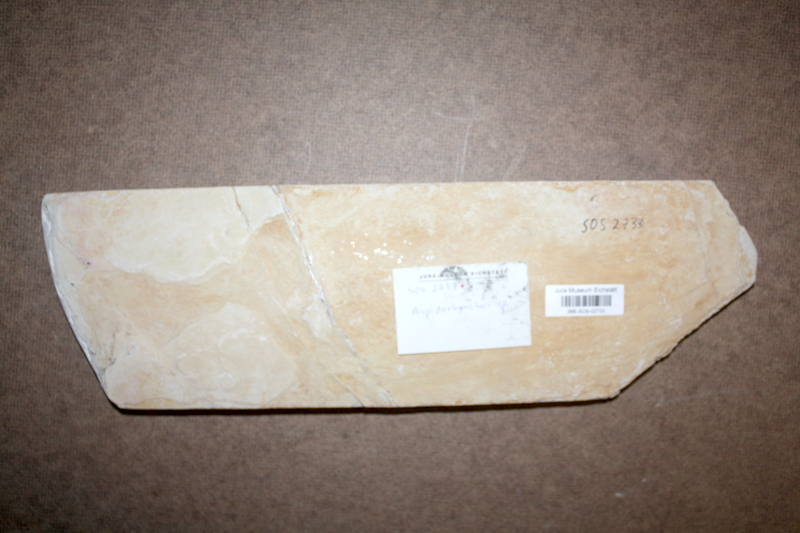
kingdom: Animalia
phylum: Chordata
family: Aspidorhynchidae
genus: Aspidorhynchus
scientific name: Aspidorhynchus acutirostris
